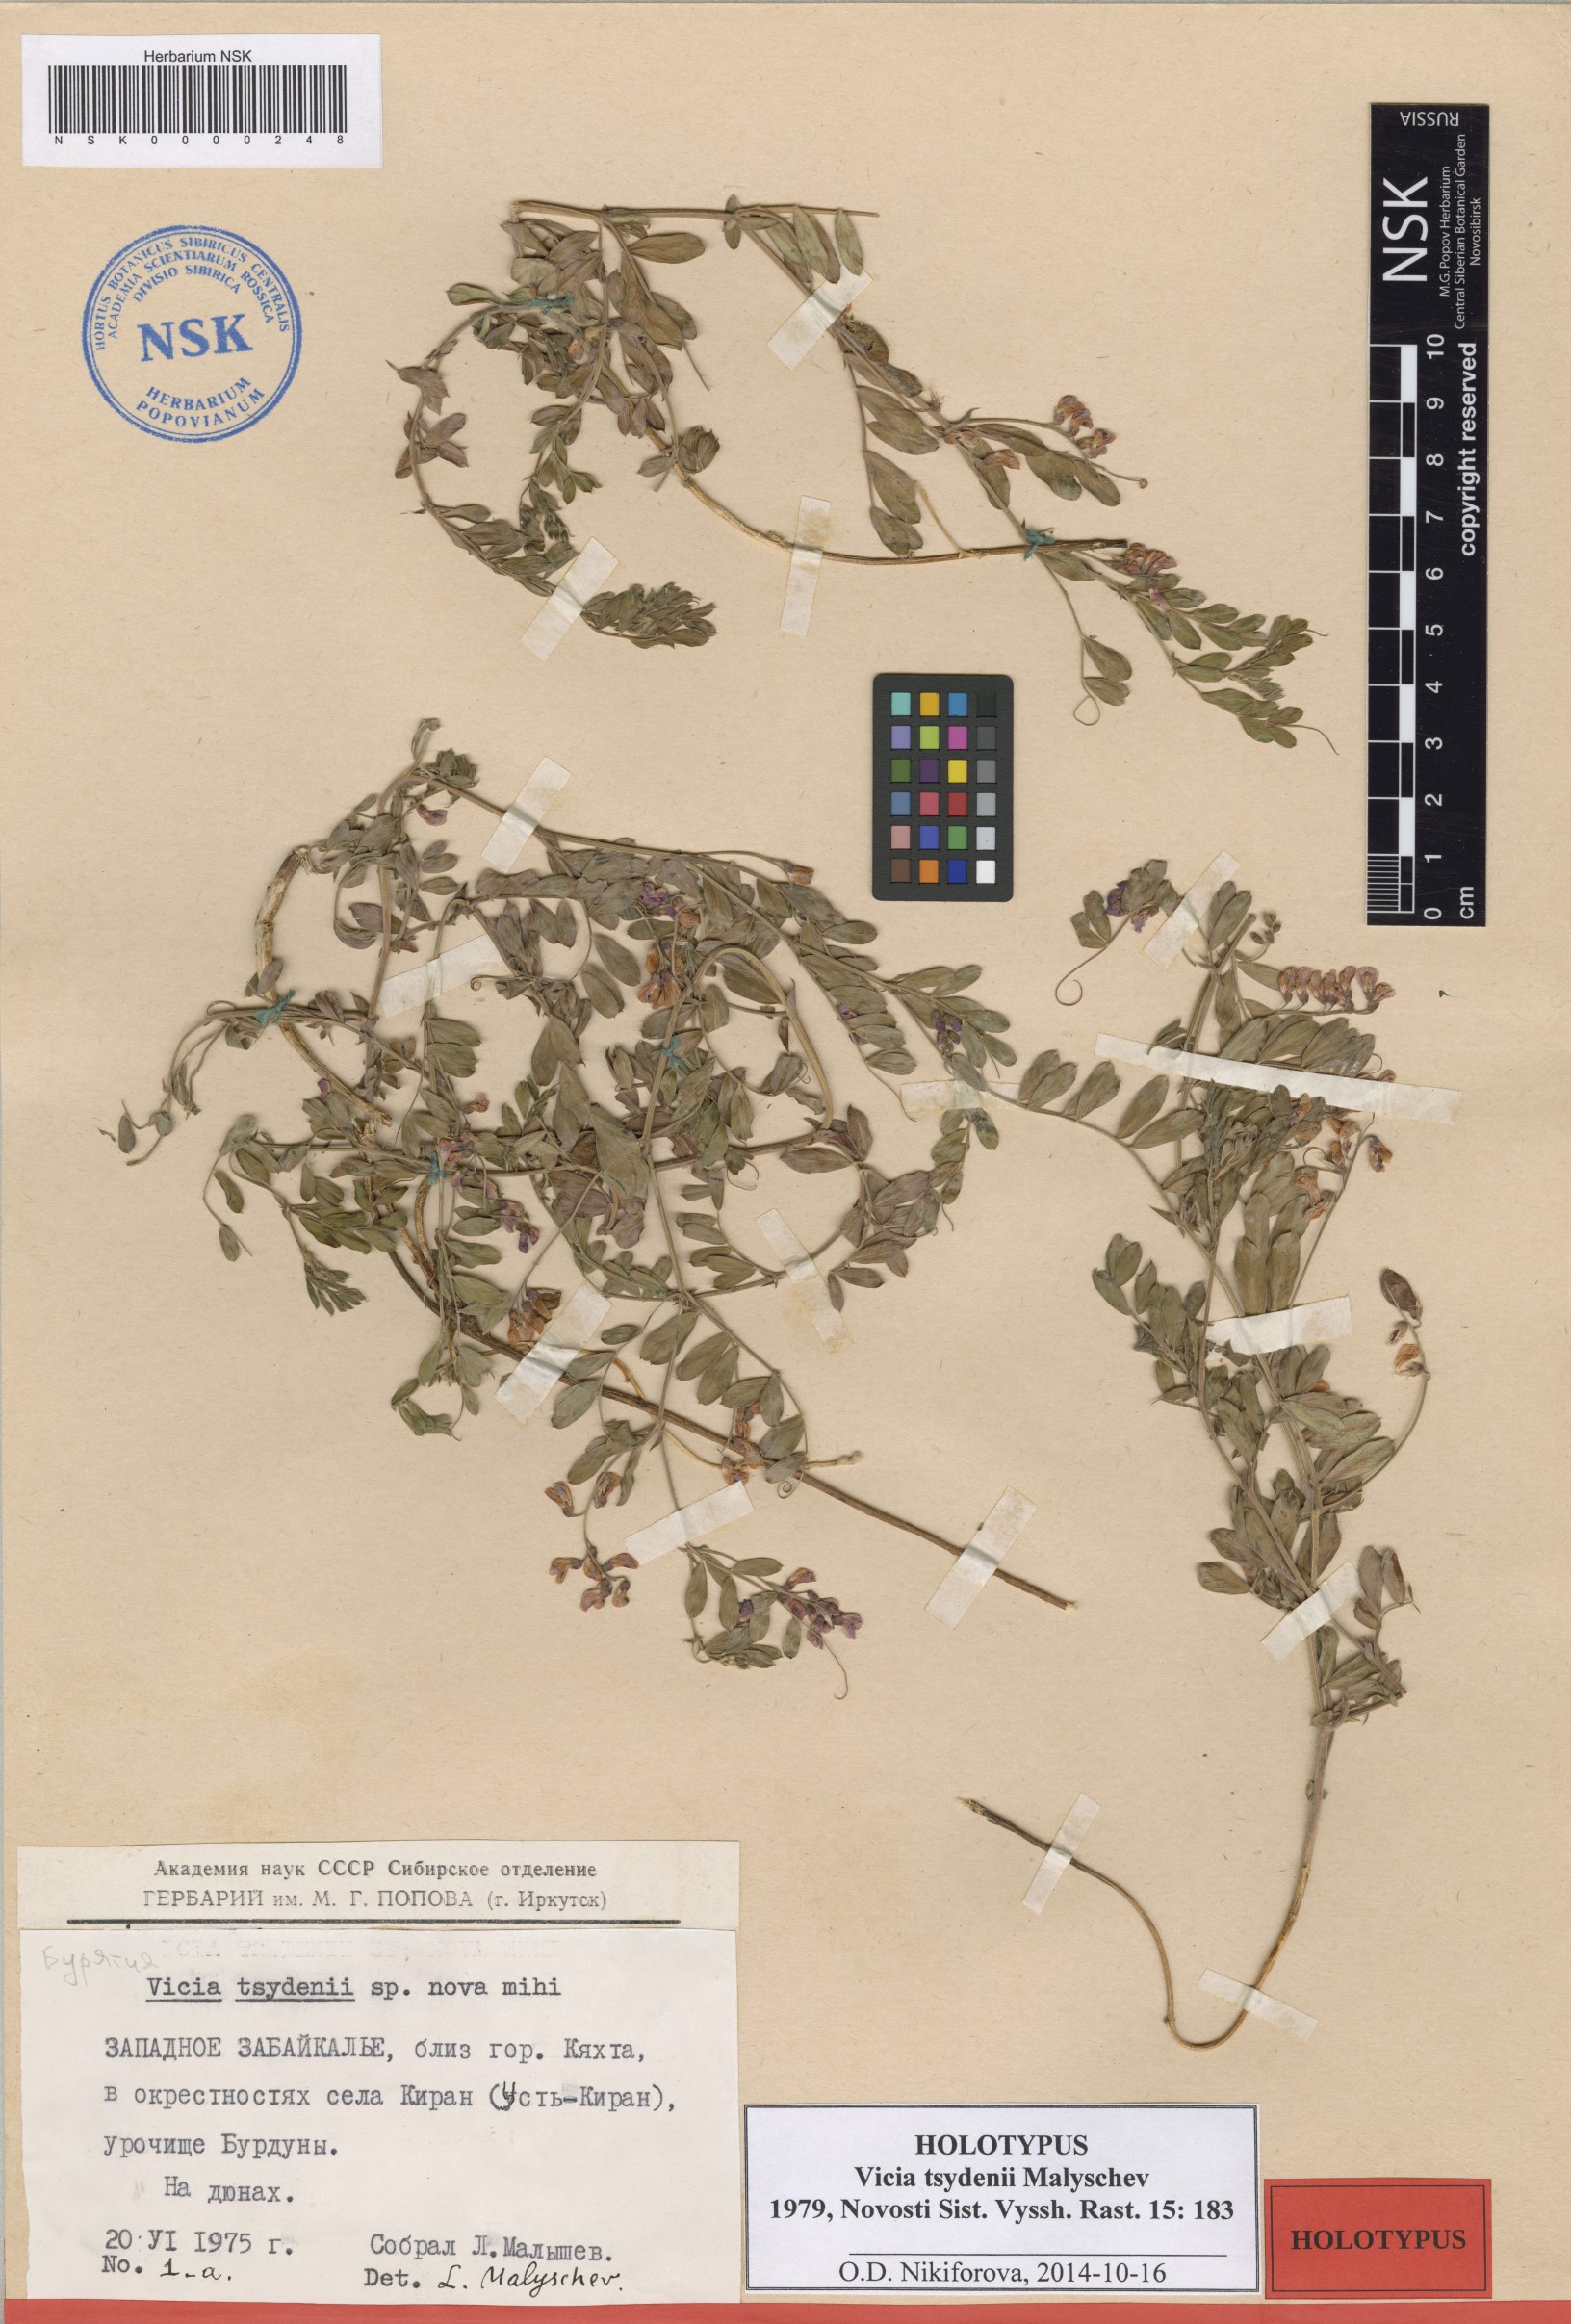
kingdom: Plantae
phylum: Tracheophyta
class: Magnoliopsida
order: Fabales
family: Fabaceae
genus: Vicia
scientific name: Vicia tsydenii
